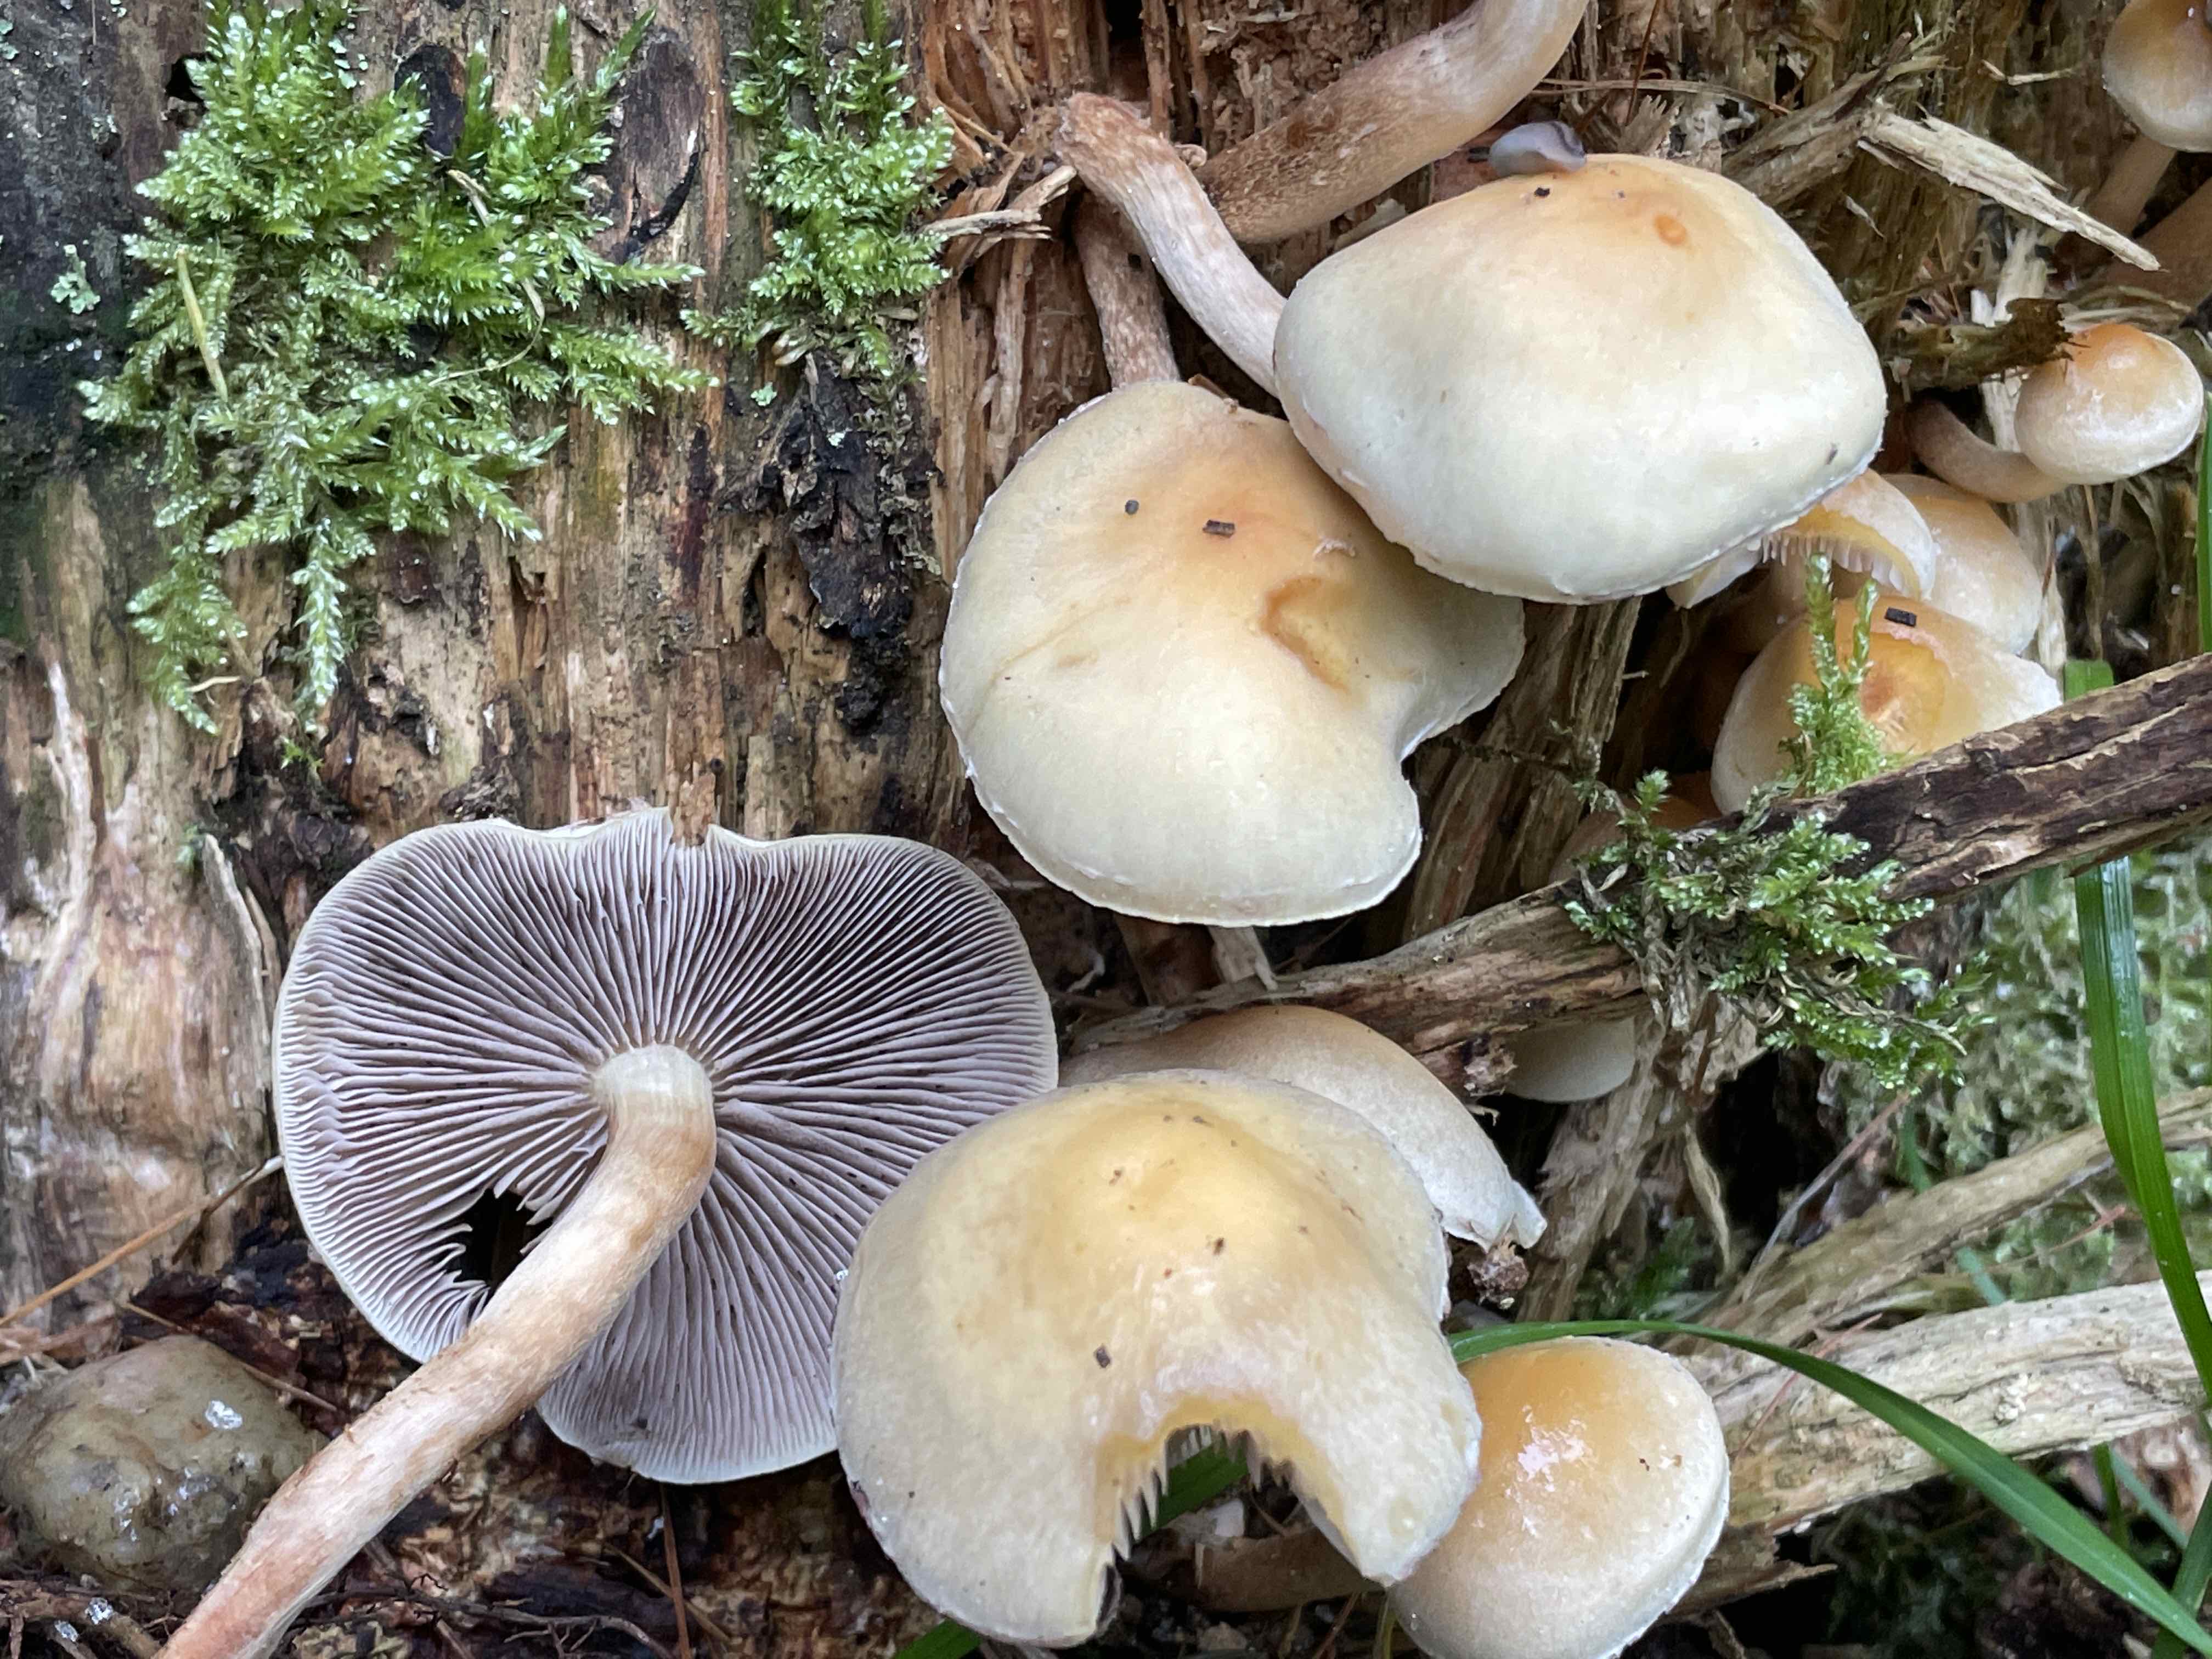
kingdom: Fungi
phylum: Basidiomycota
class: Agaricomycetes
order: Agaricales
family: Strophariaceae
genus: Hypholoma
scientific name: Hypholoma capnoides
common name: gran-svovlhat
